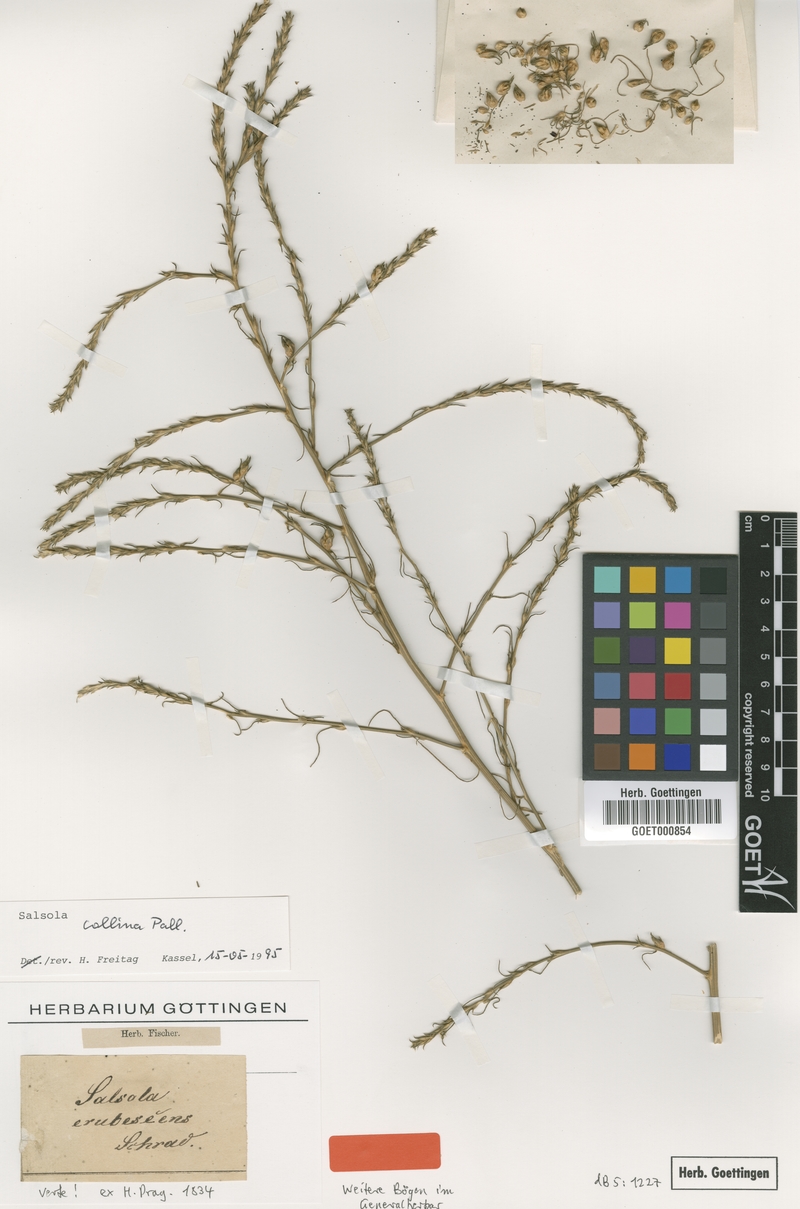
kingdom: Plantae
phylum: Tracheophyta
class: Magnoliopsida
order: Caryophyllales
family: Amaranthaceae
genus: Salsola
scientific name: Salsola collina
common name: Tumbleweed
